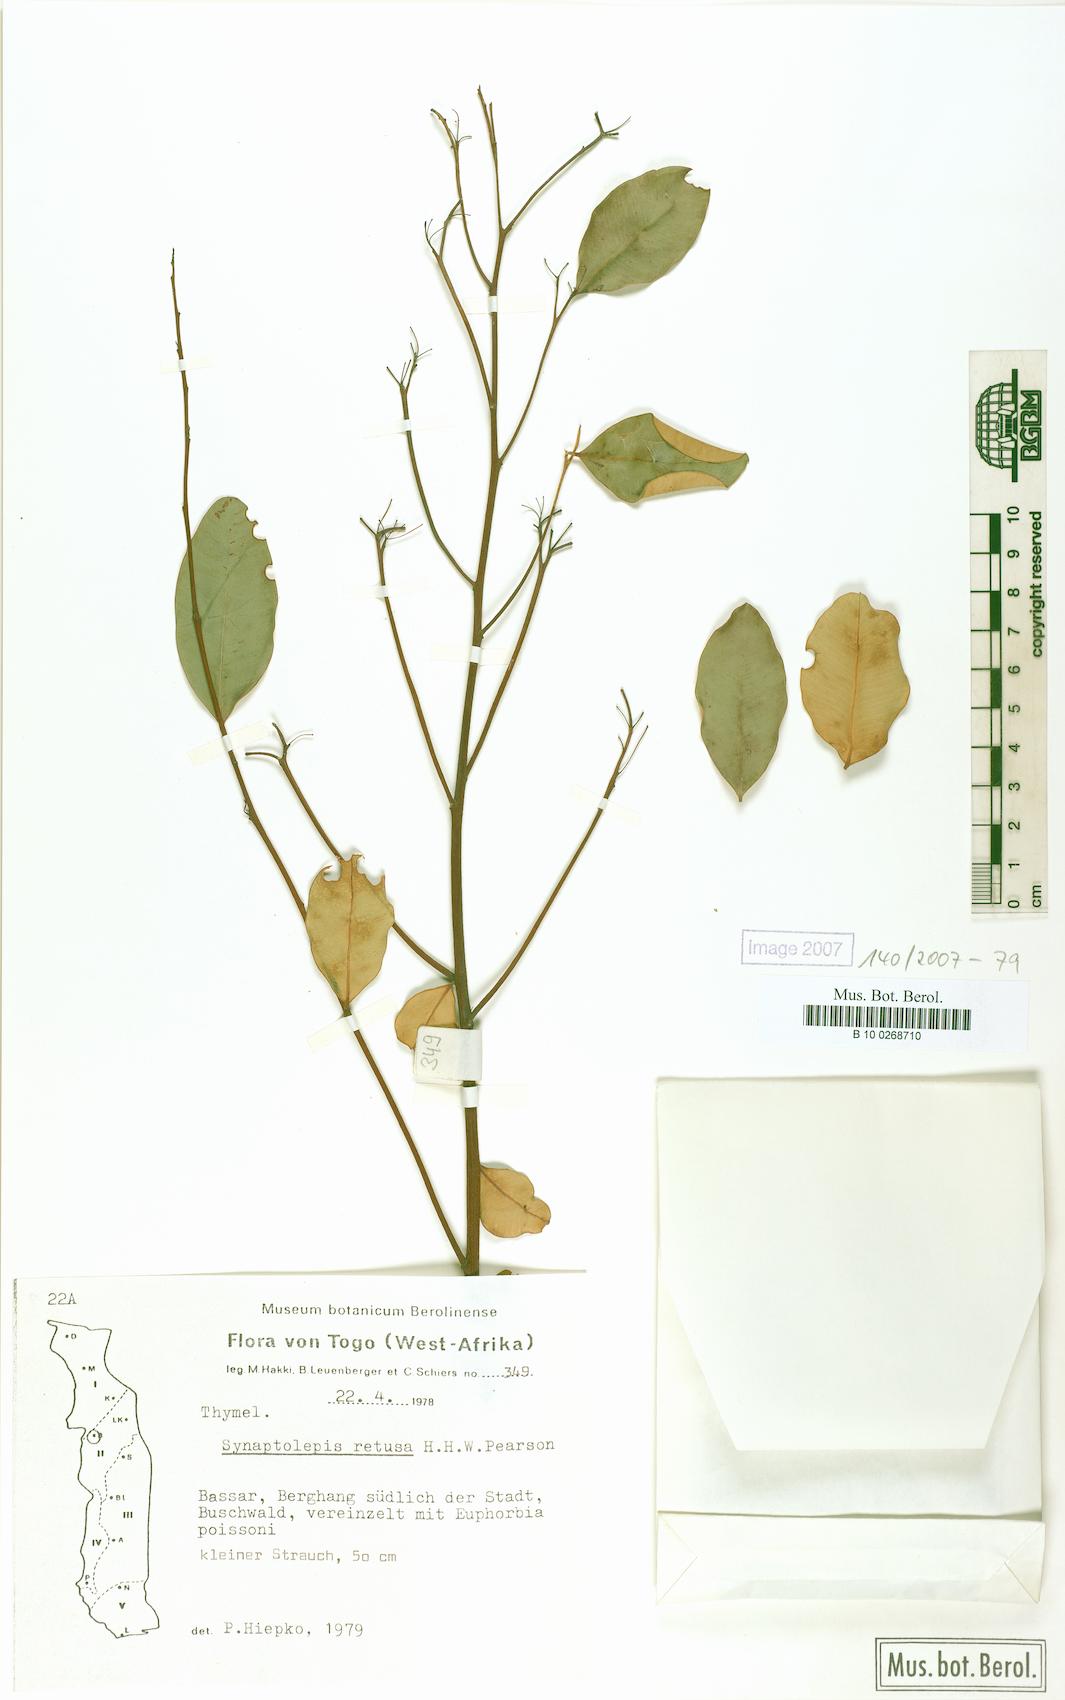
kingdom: Plantae
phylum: Tracheophyta
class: Magnoliopsida
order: Malvales
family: Thymelaeaceae
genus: Synaptolepis
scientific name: Synaptolepis retusa
